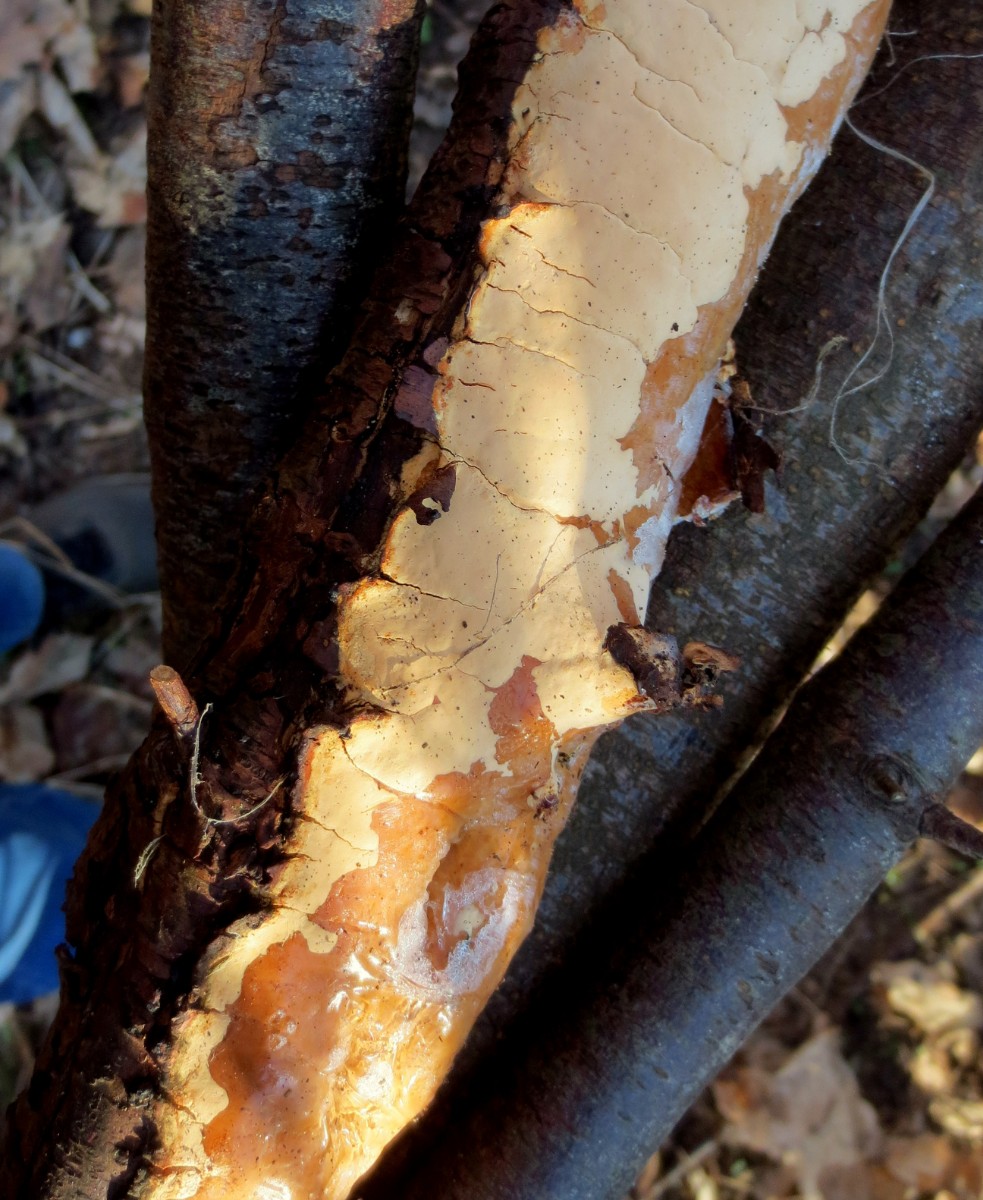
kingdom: Fungi
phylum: Basidiomycota
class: Agaricomycetes
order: Russulales
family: Peniophoraceae
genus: Scytinostroma
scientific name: Scytinostroma hemidichophyticum
